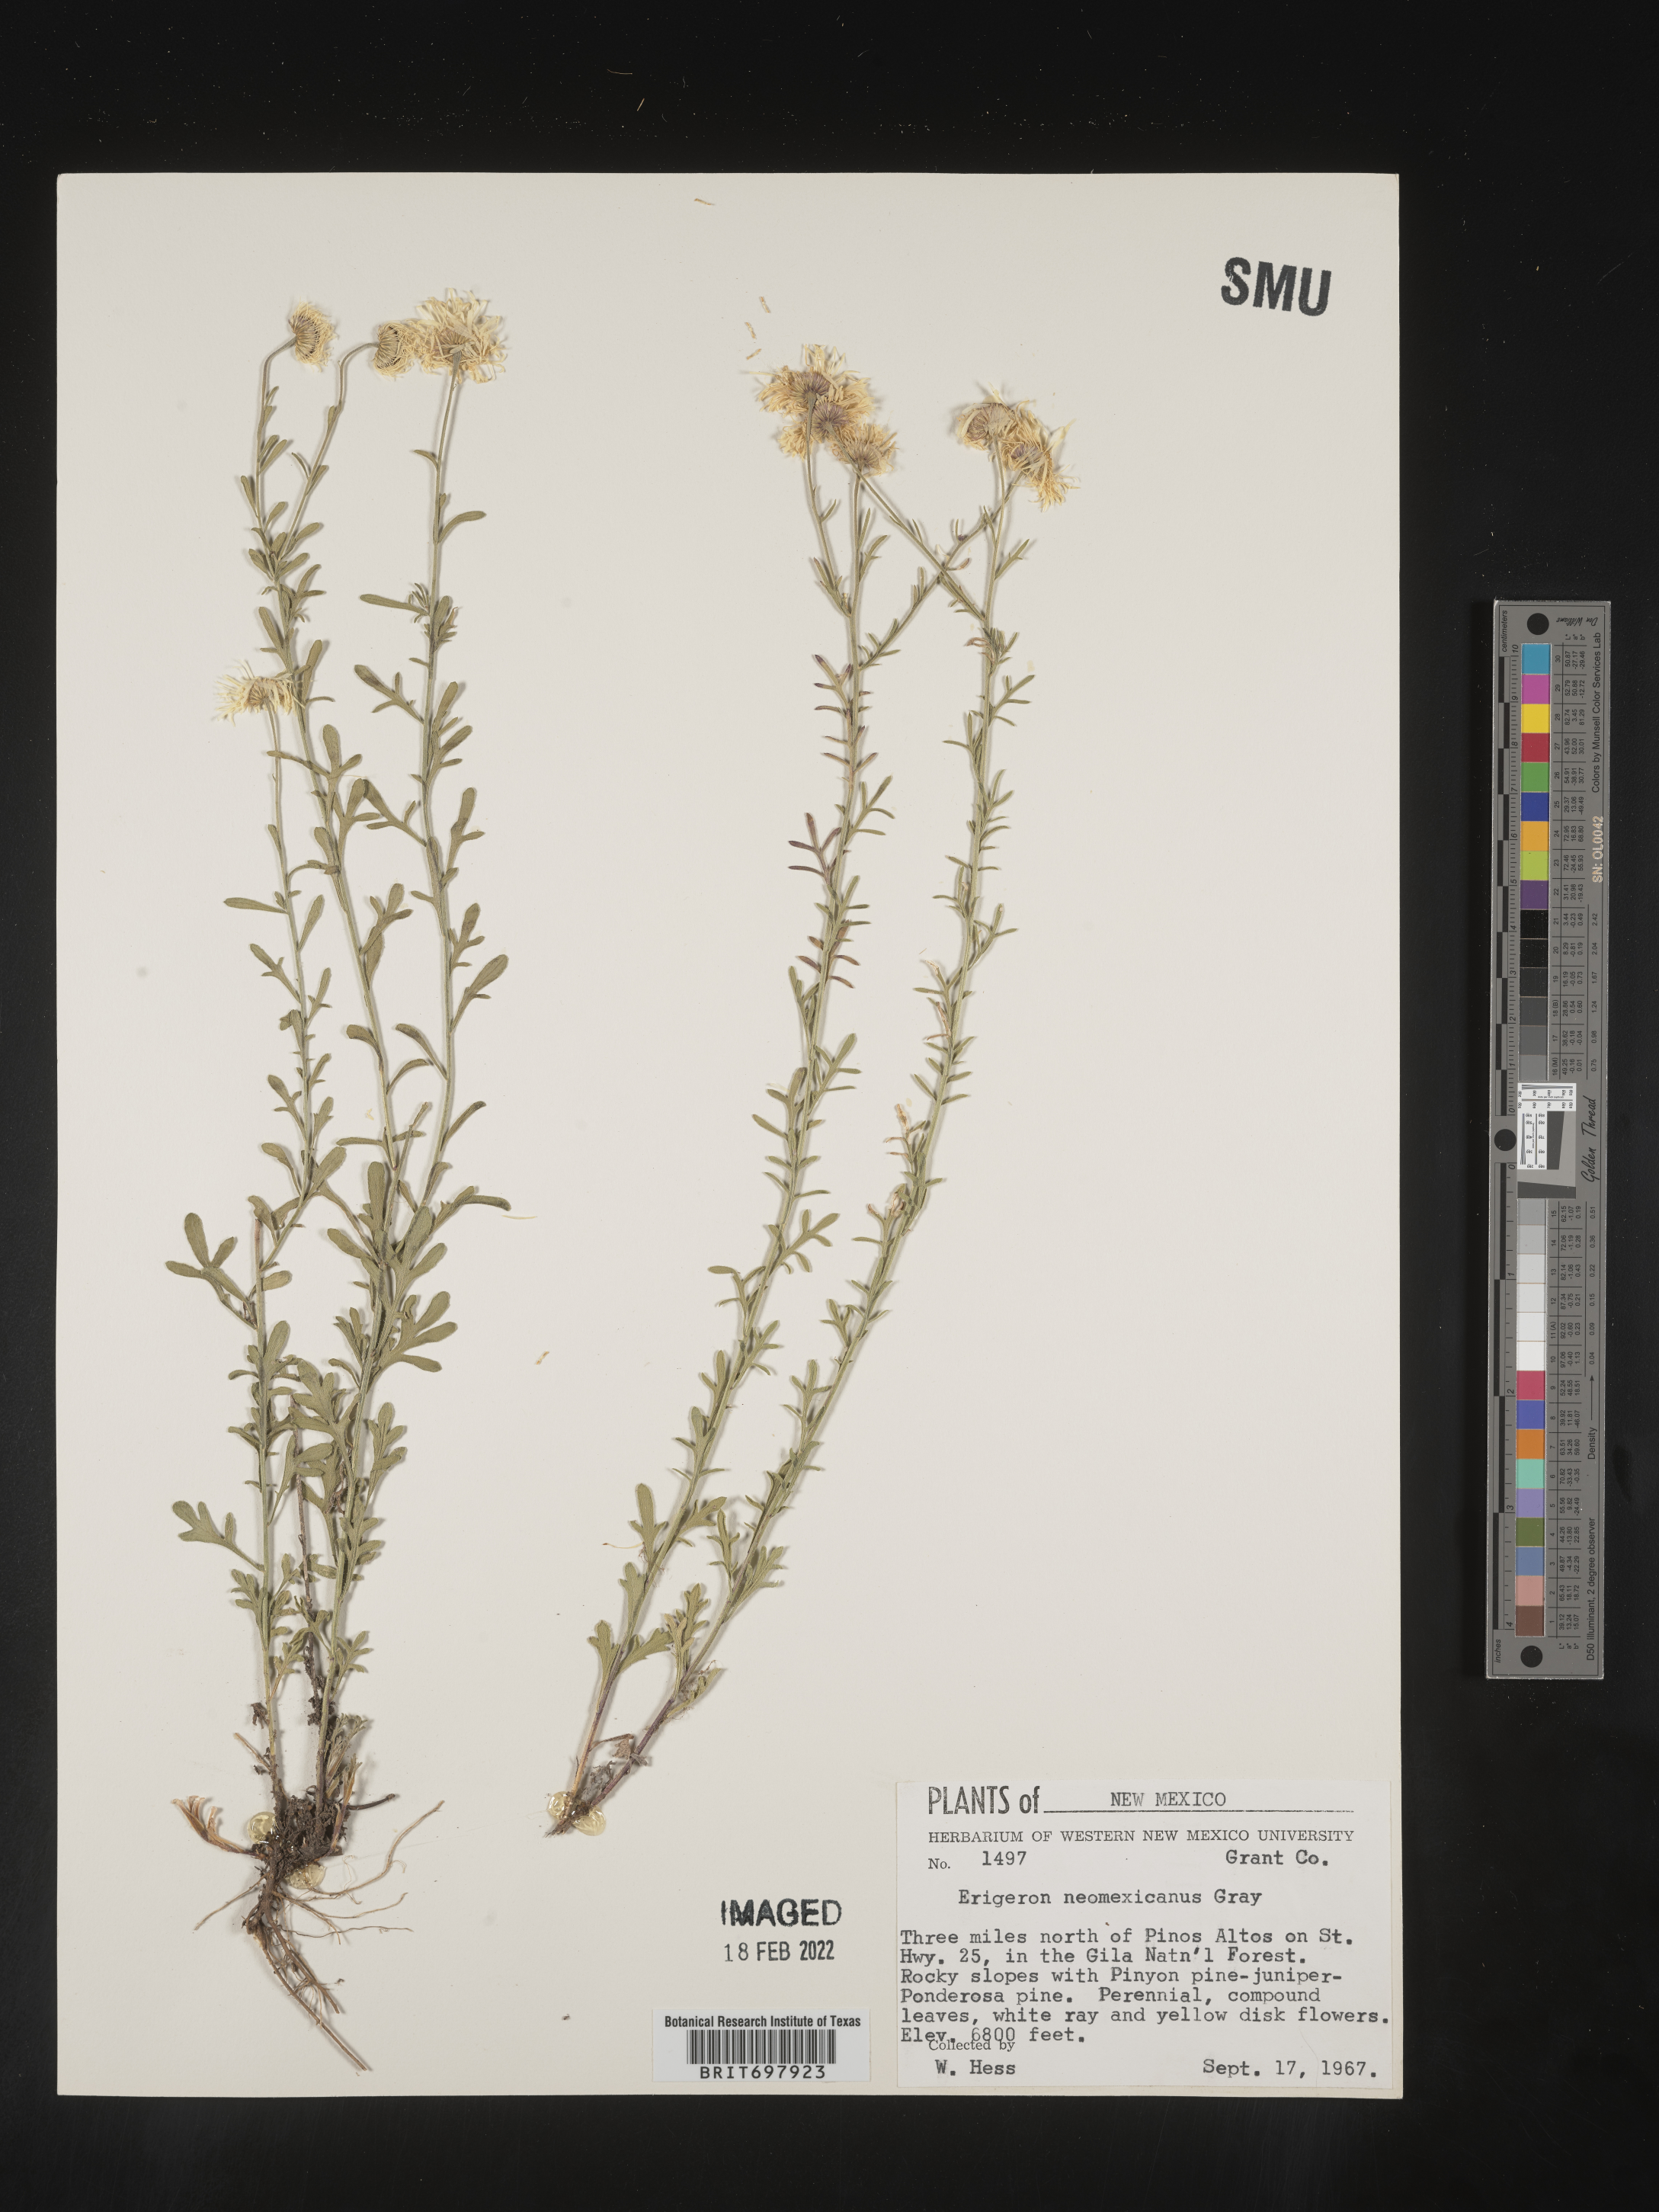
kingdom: Plantae
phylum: Tracheophyta
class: Magnoliopsida
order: Asterales
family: Asteraceae
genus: Erigeron
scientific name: Erigeron neomexicanus
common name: New mexico fleabane
